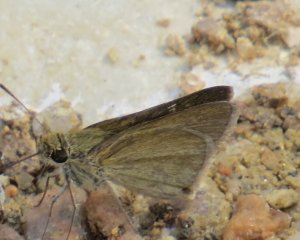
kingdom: Animalia
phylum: Arthropoda
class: Insecta
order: Lepidoptera
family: Hesperiidae
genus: Lerodea
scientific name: Lerodea eufala
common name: Eufala Skipper
